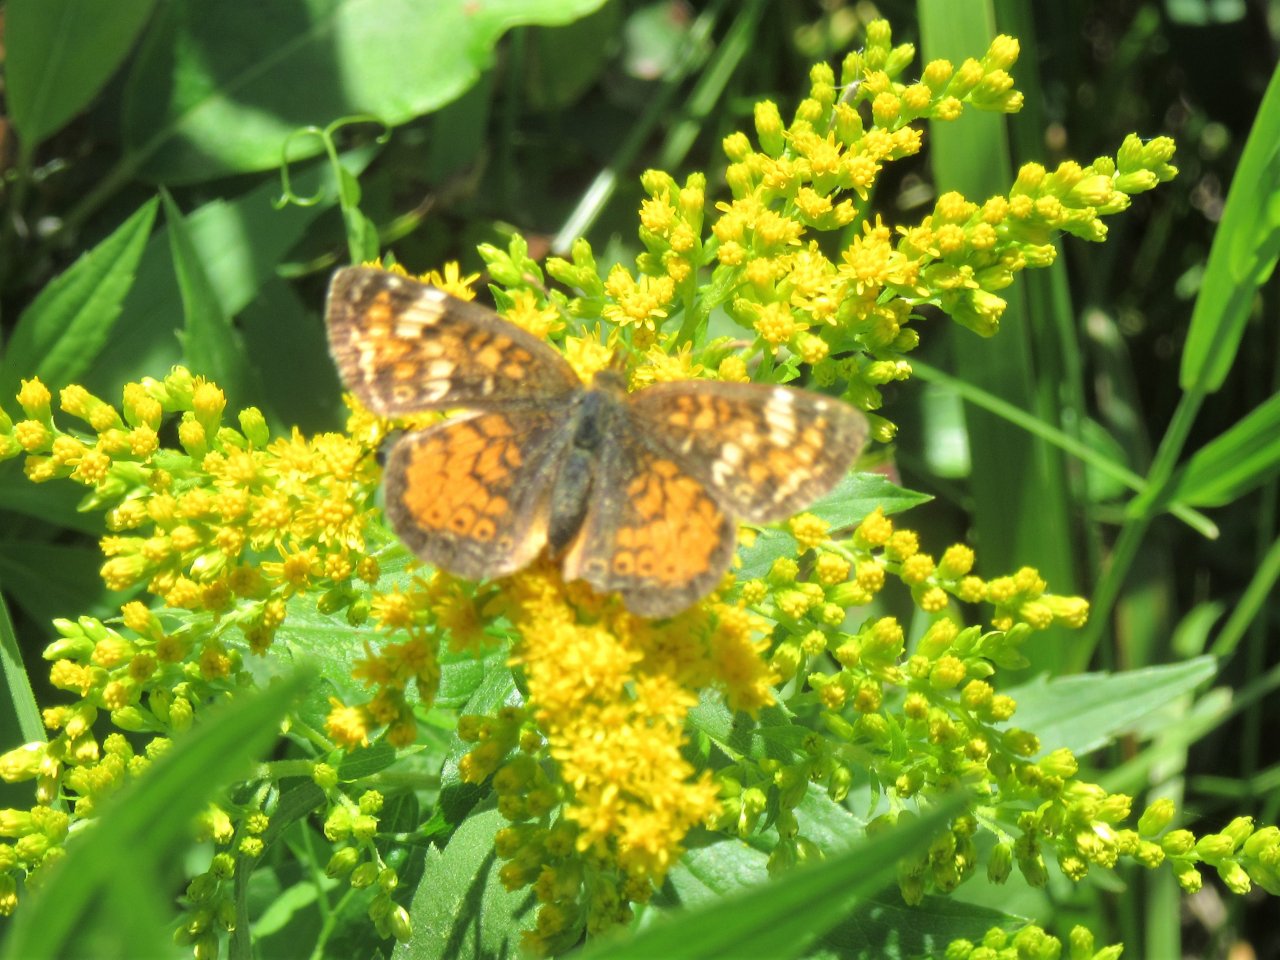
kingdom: Animalia
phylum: Arthropoda
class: Insecta
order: Lepidoptera
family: Nymphalidae
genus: Phyciodes
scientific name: Phyciodes tharos
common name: Pearl Crescent
